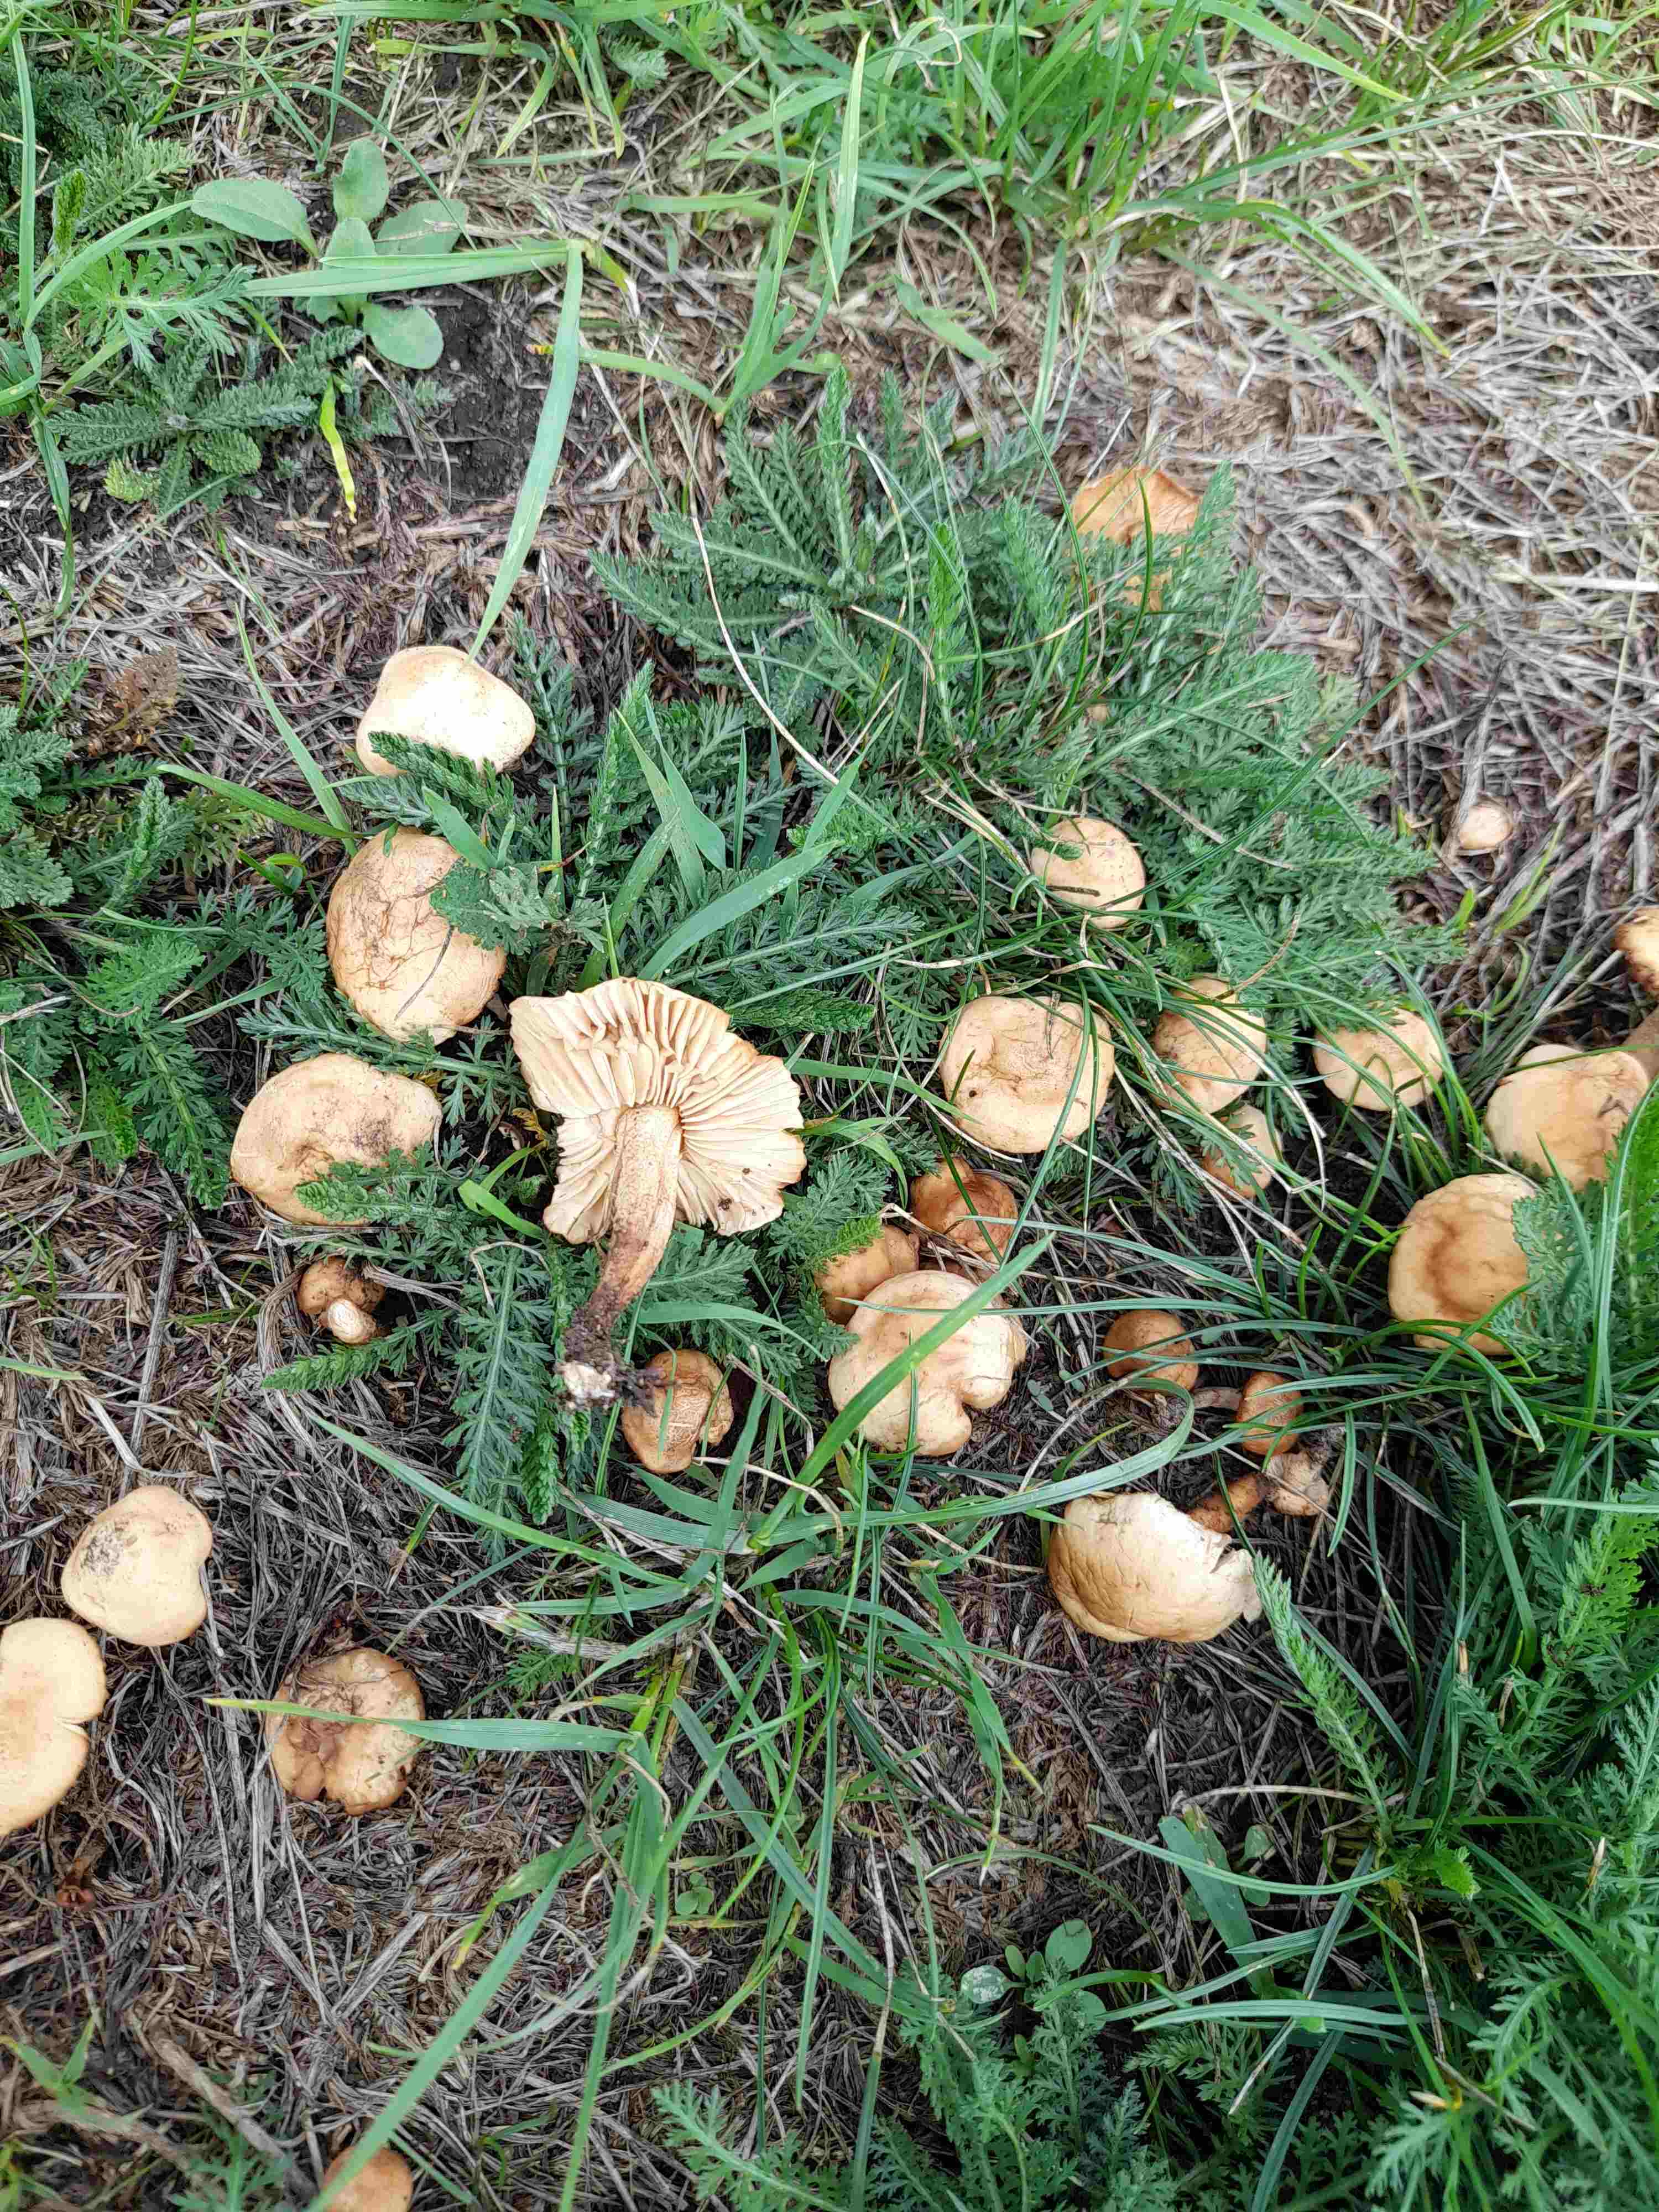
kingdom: Fungi
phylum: Basidiomycota
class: Agaricomycetes
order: Agaricales
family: Marasmiaceae
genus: Marasmius
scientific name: Marasmius oreades
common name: elledans-bruskhat
